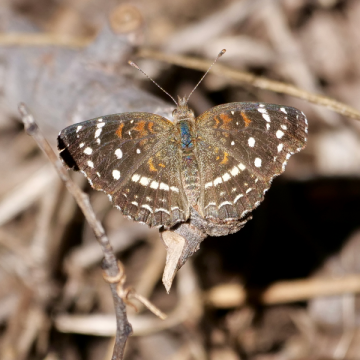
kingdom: Animalia
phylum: Arthropoda
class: Insecta
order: Lepidoptera
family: Nymphalidae
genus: Anthanassa
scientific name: Anthanassa texana
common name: Texan Crescent
